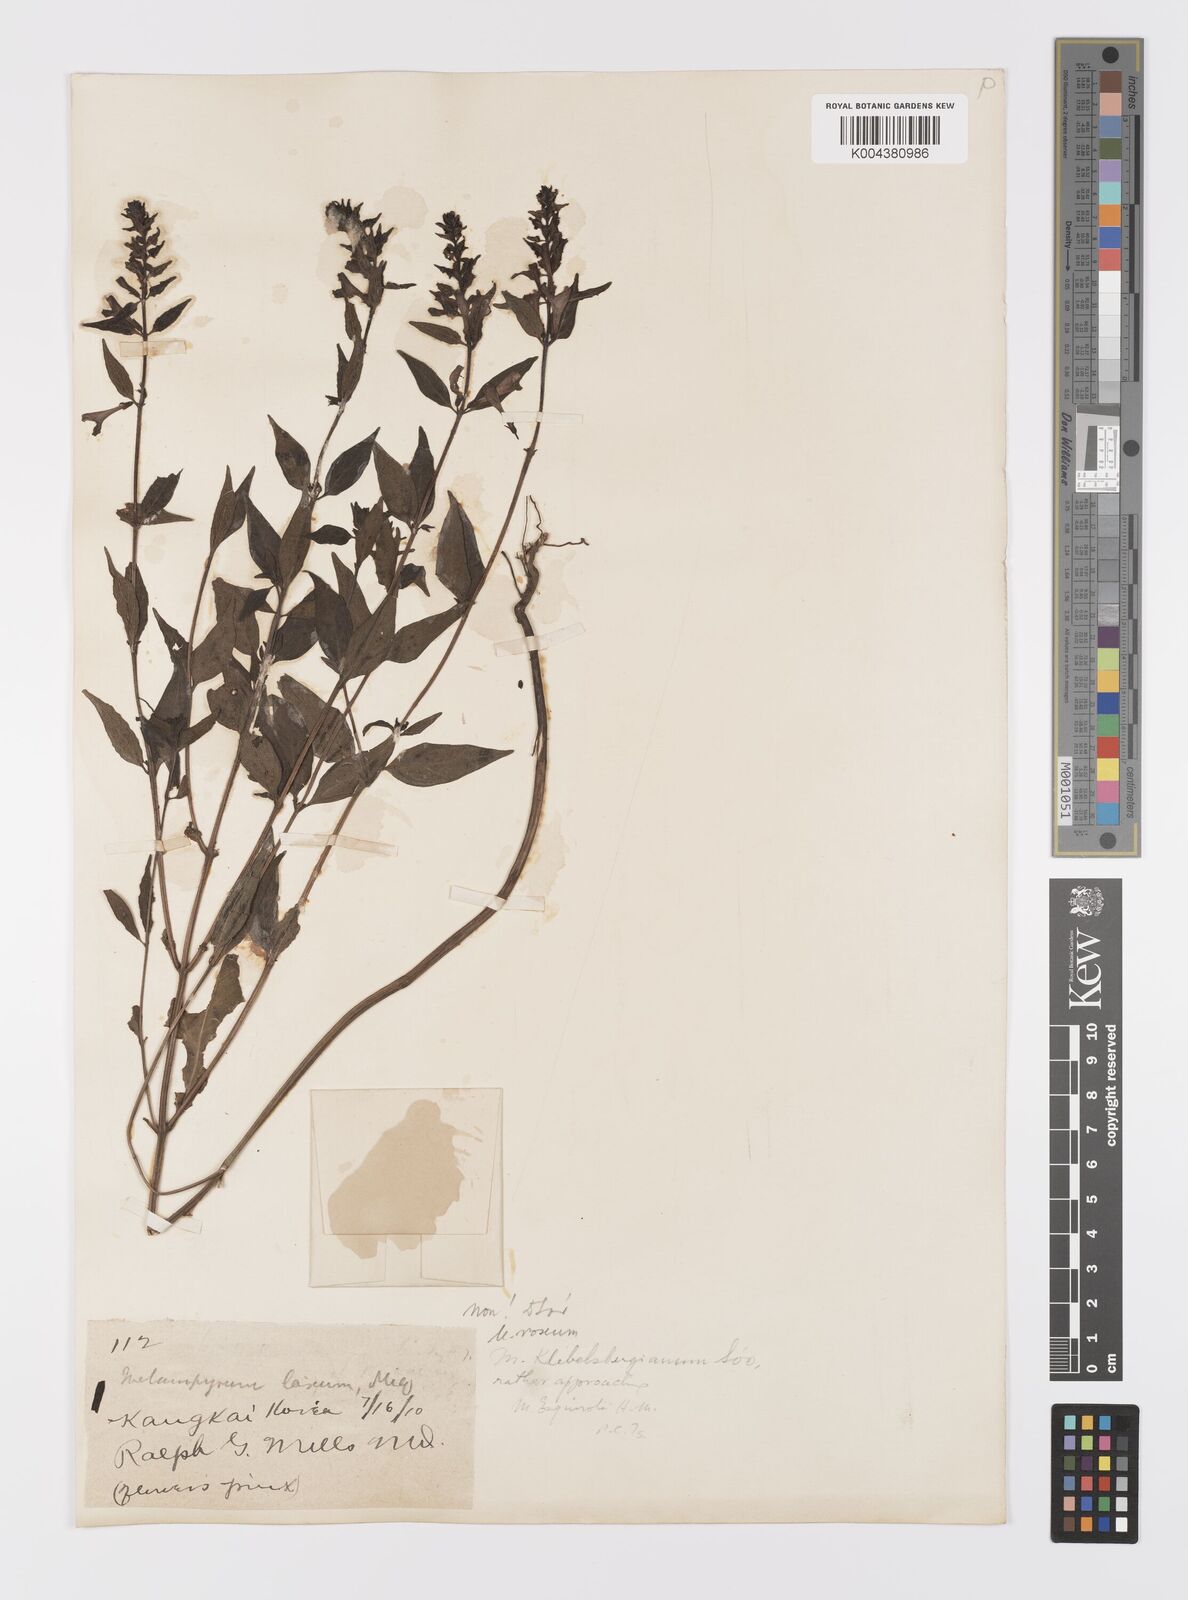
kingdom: Plantae
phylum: Tracheophyta
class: Magnoliopsida
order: Lamiales
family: Orobanchaceae
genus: Melampyrum
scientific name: Melampyrum chinense
